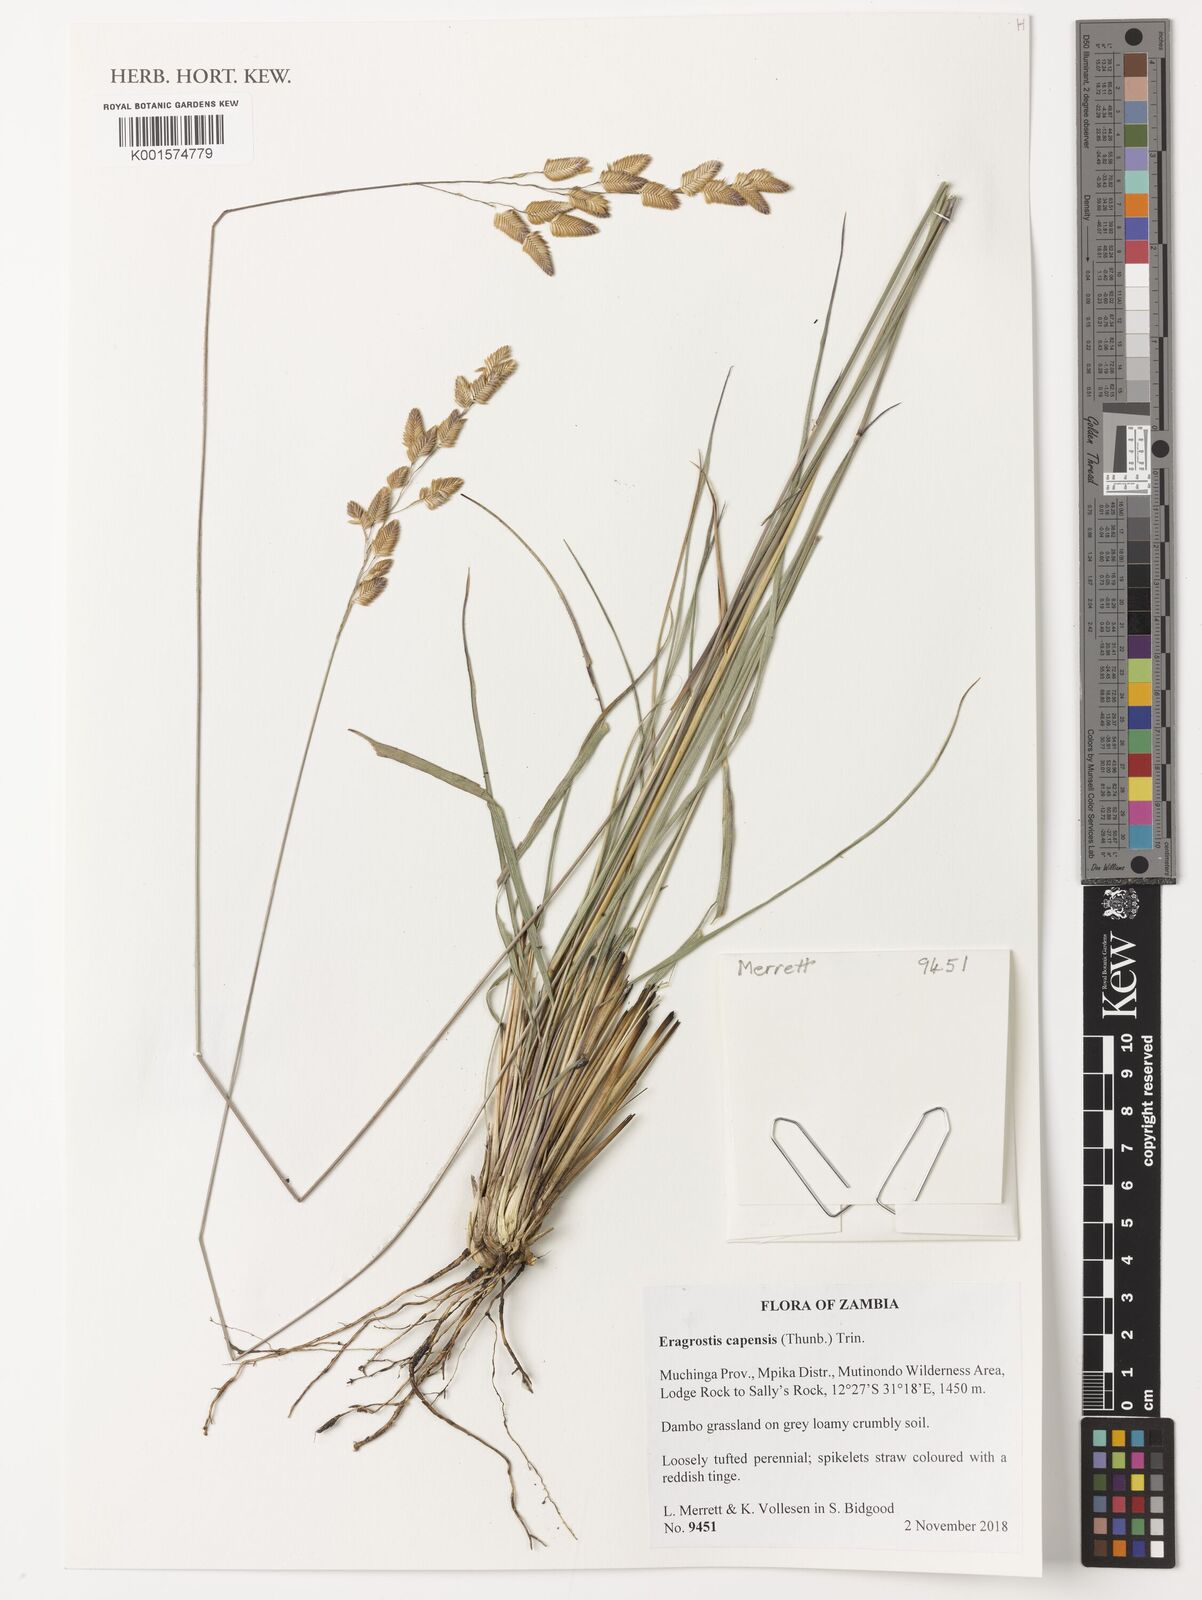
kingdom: Plantae
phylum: Tracheophyta
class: Liliopsida
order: Poales
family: Poaceae
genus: Eragrostis
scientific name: Eragrostis capensis
